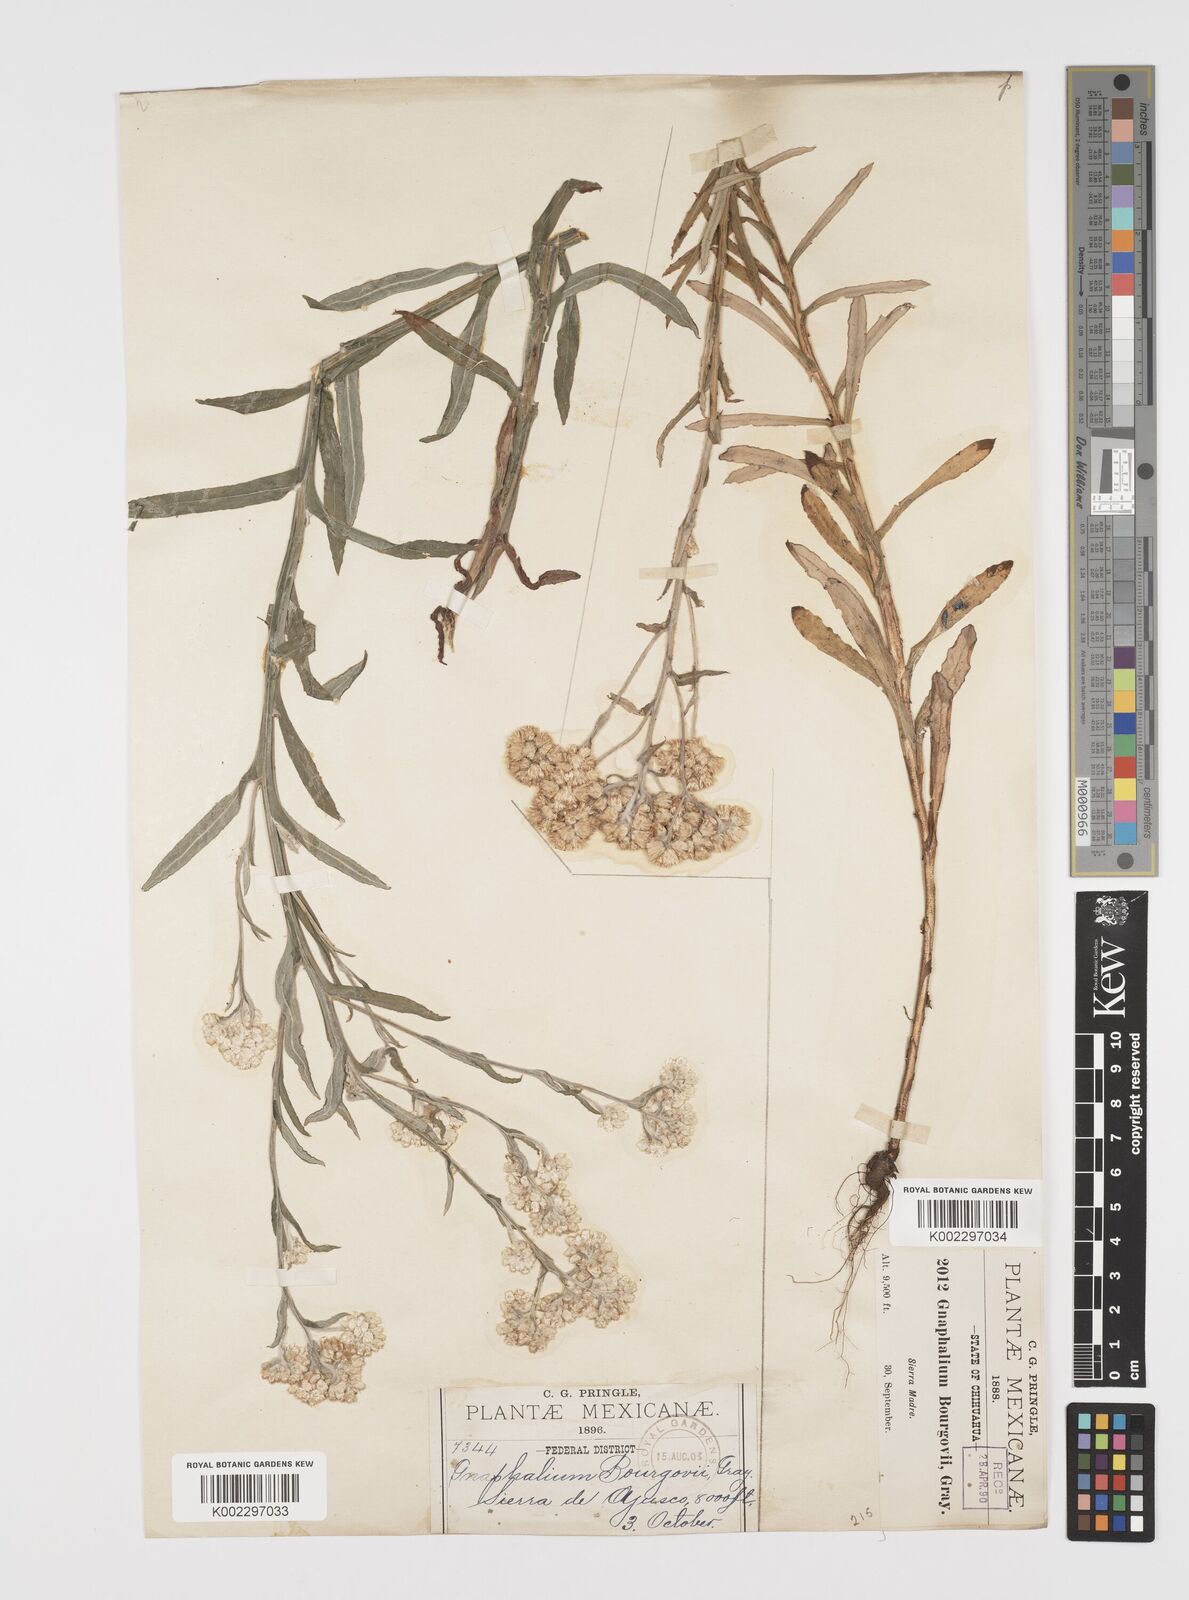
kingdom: Plantae
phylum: Tracheophyta
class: Magnoliopsida
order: Asterales
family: Asteraceae
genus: Pseudognaphalium
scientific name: Pseudognaphalium bourgovii
